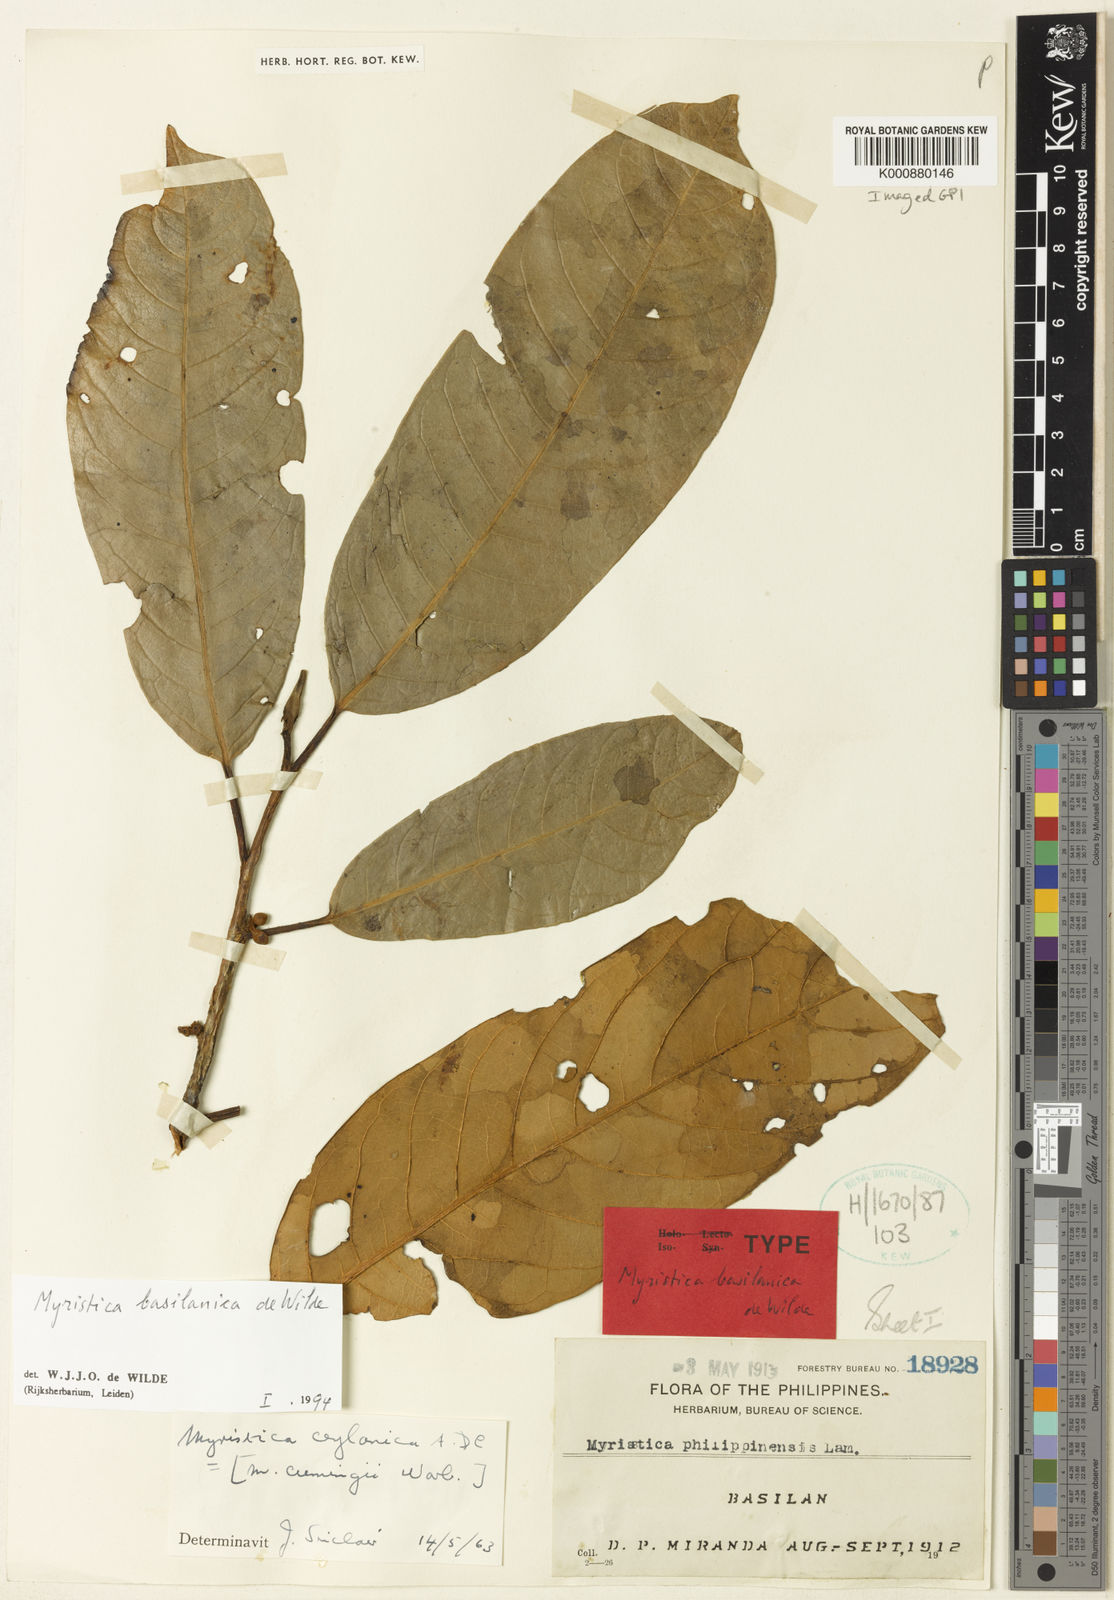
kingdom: Plantae
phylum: Tracheophyta
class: Magnoliopsida
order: Magnoliales
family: Myristicaceae
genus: Myristica
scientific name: Myristica basilanica
